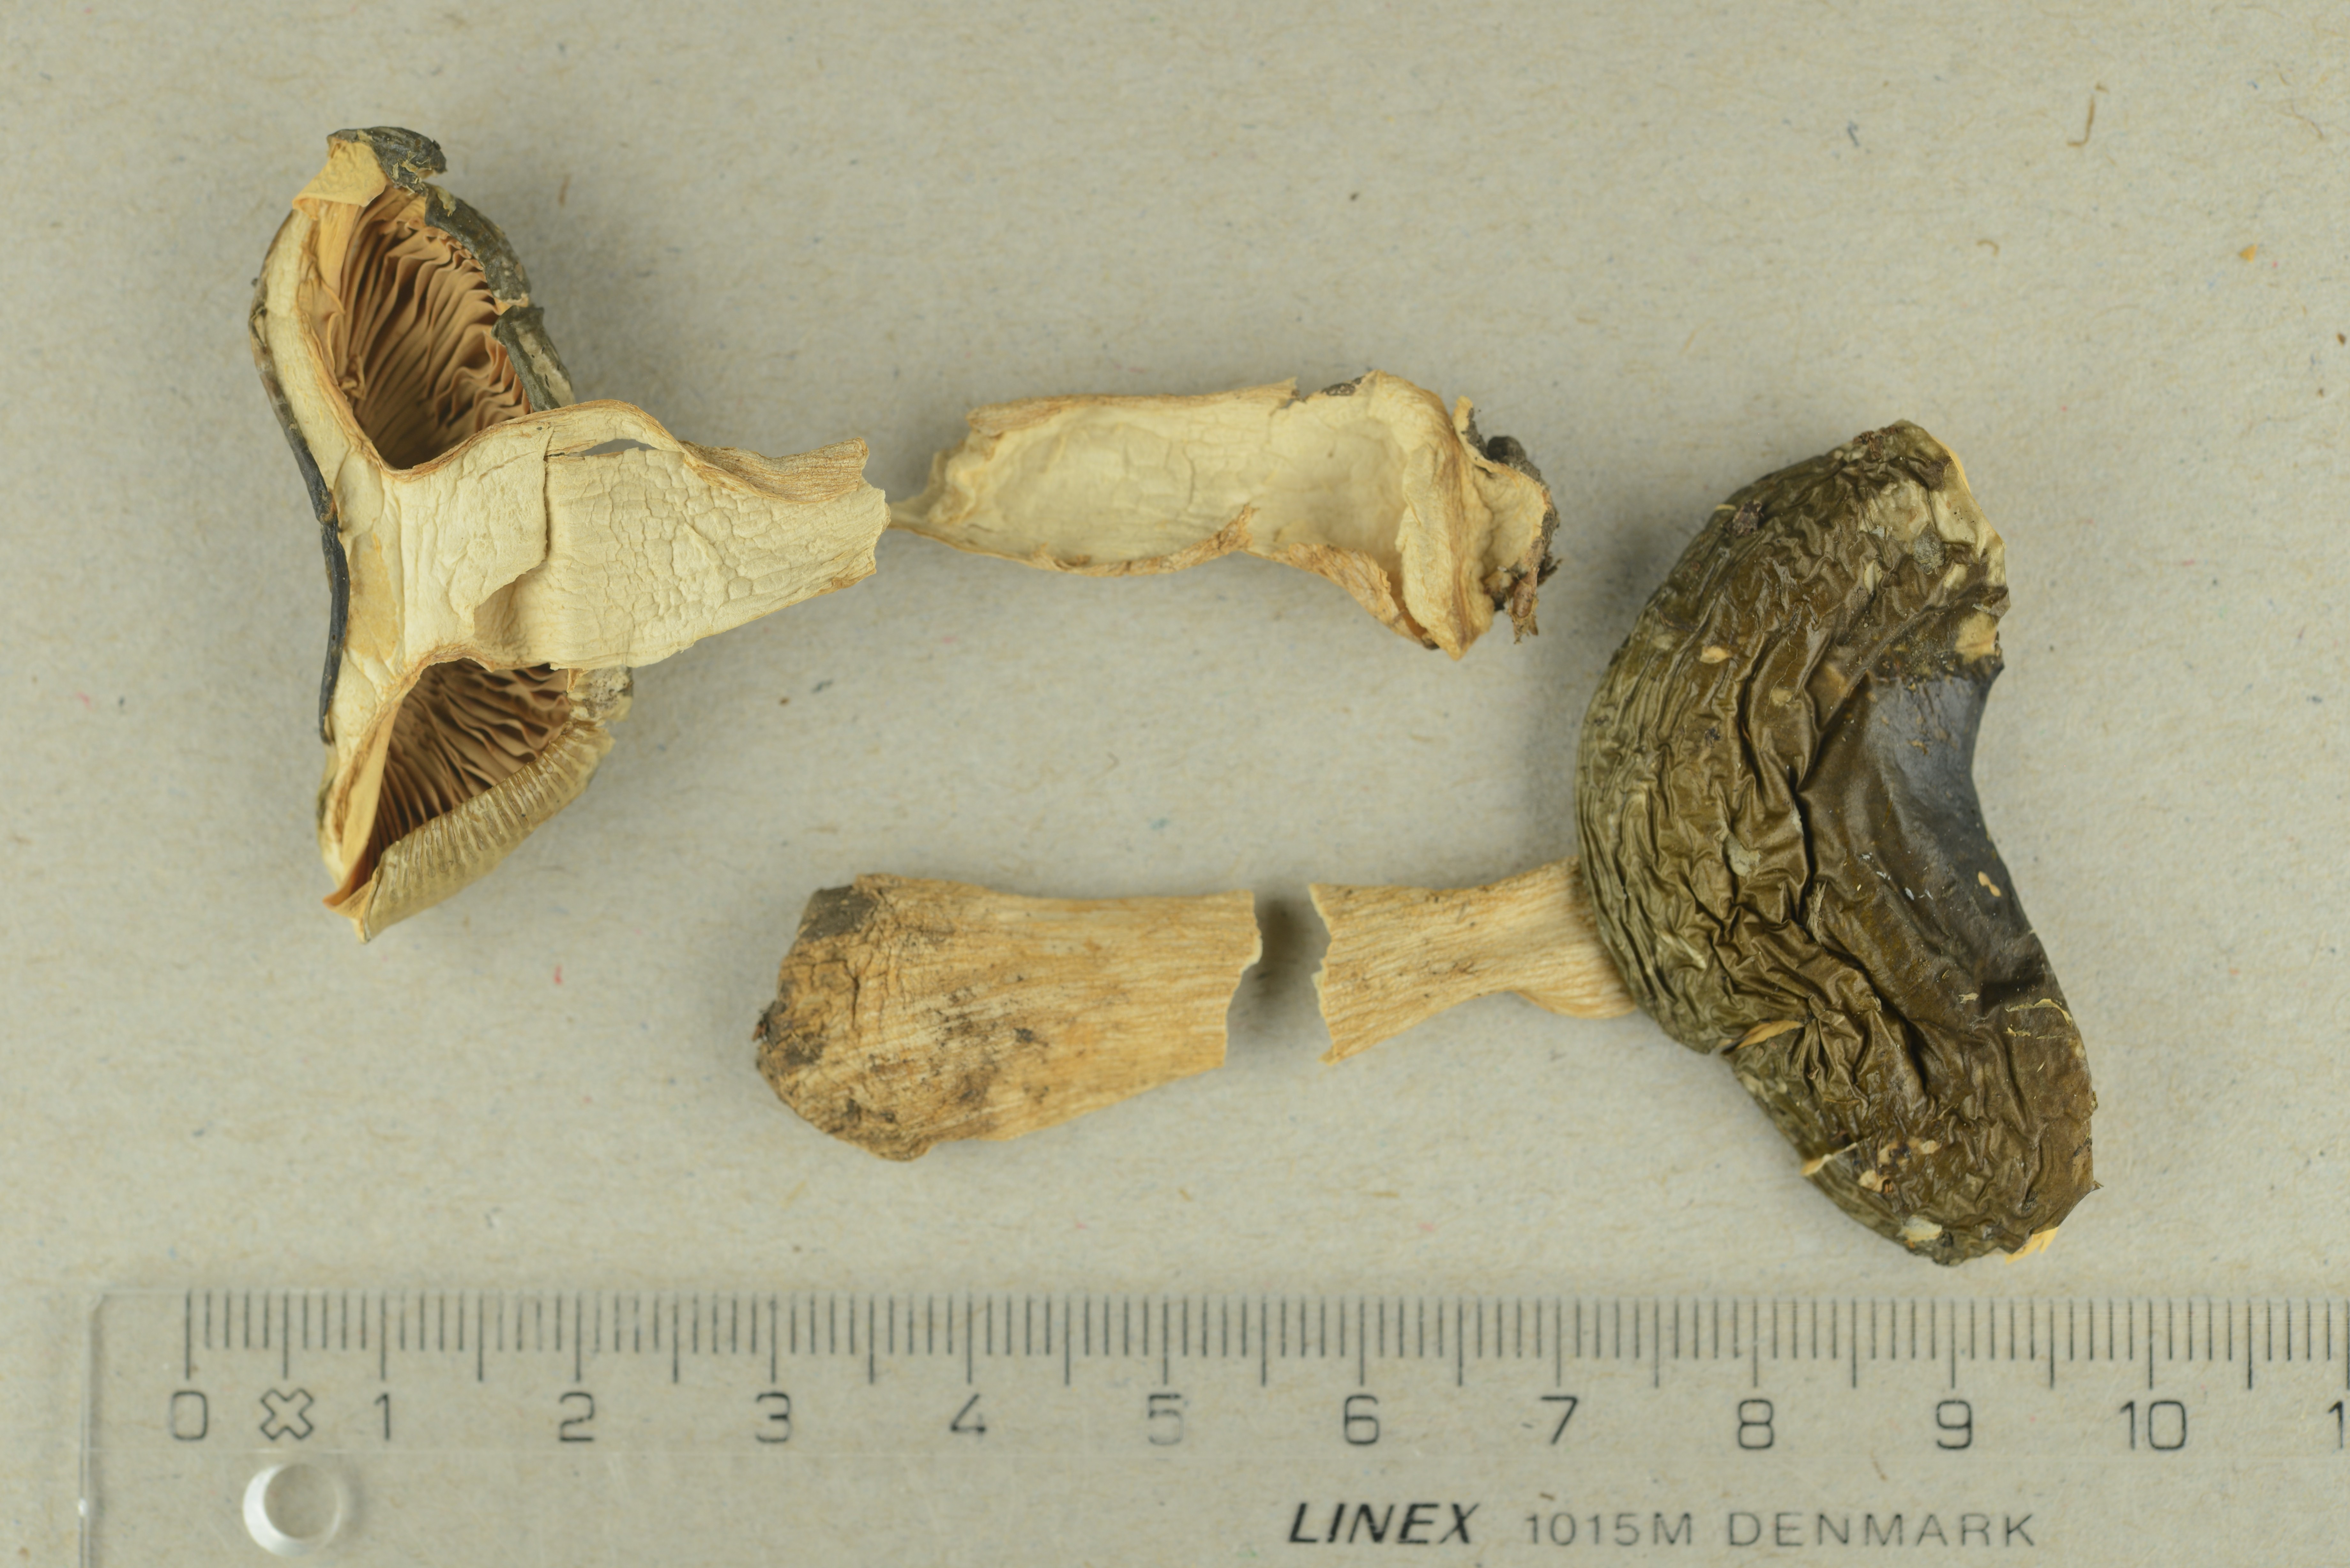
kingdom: Fungi
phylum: Basidiomycota
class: Agaricomycetes
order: Russulales
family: Russulaceae
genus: Russula
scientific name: Russula nauseosa
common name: Nauseous brittlegill
